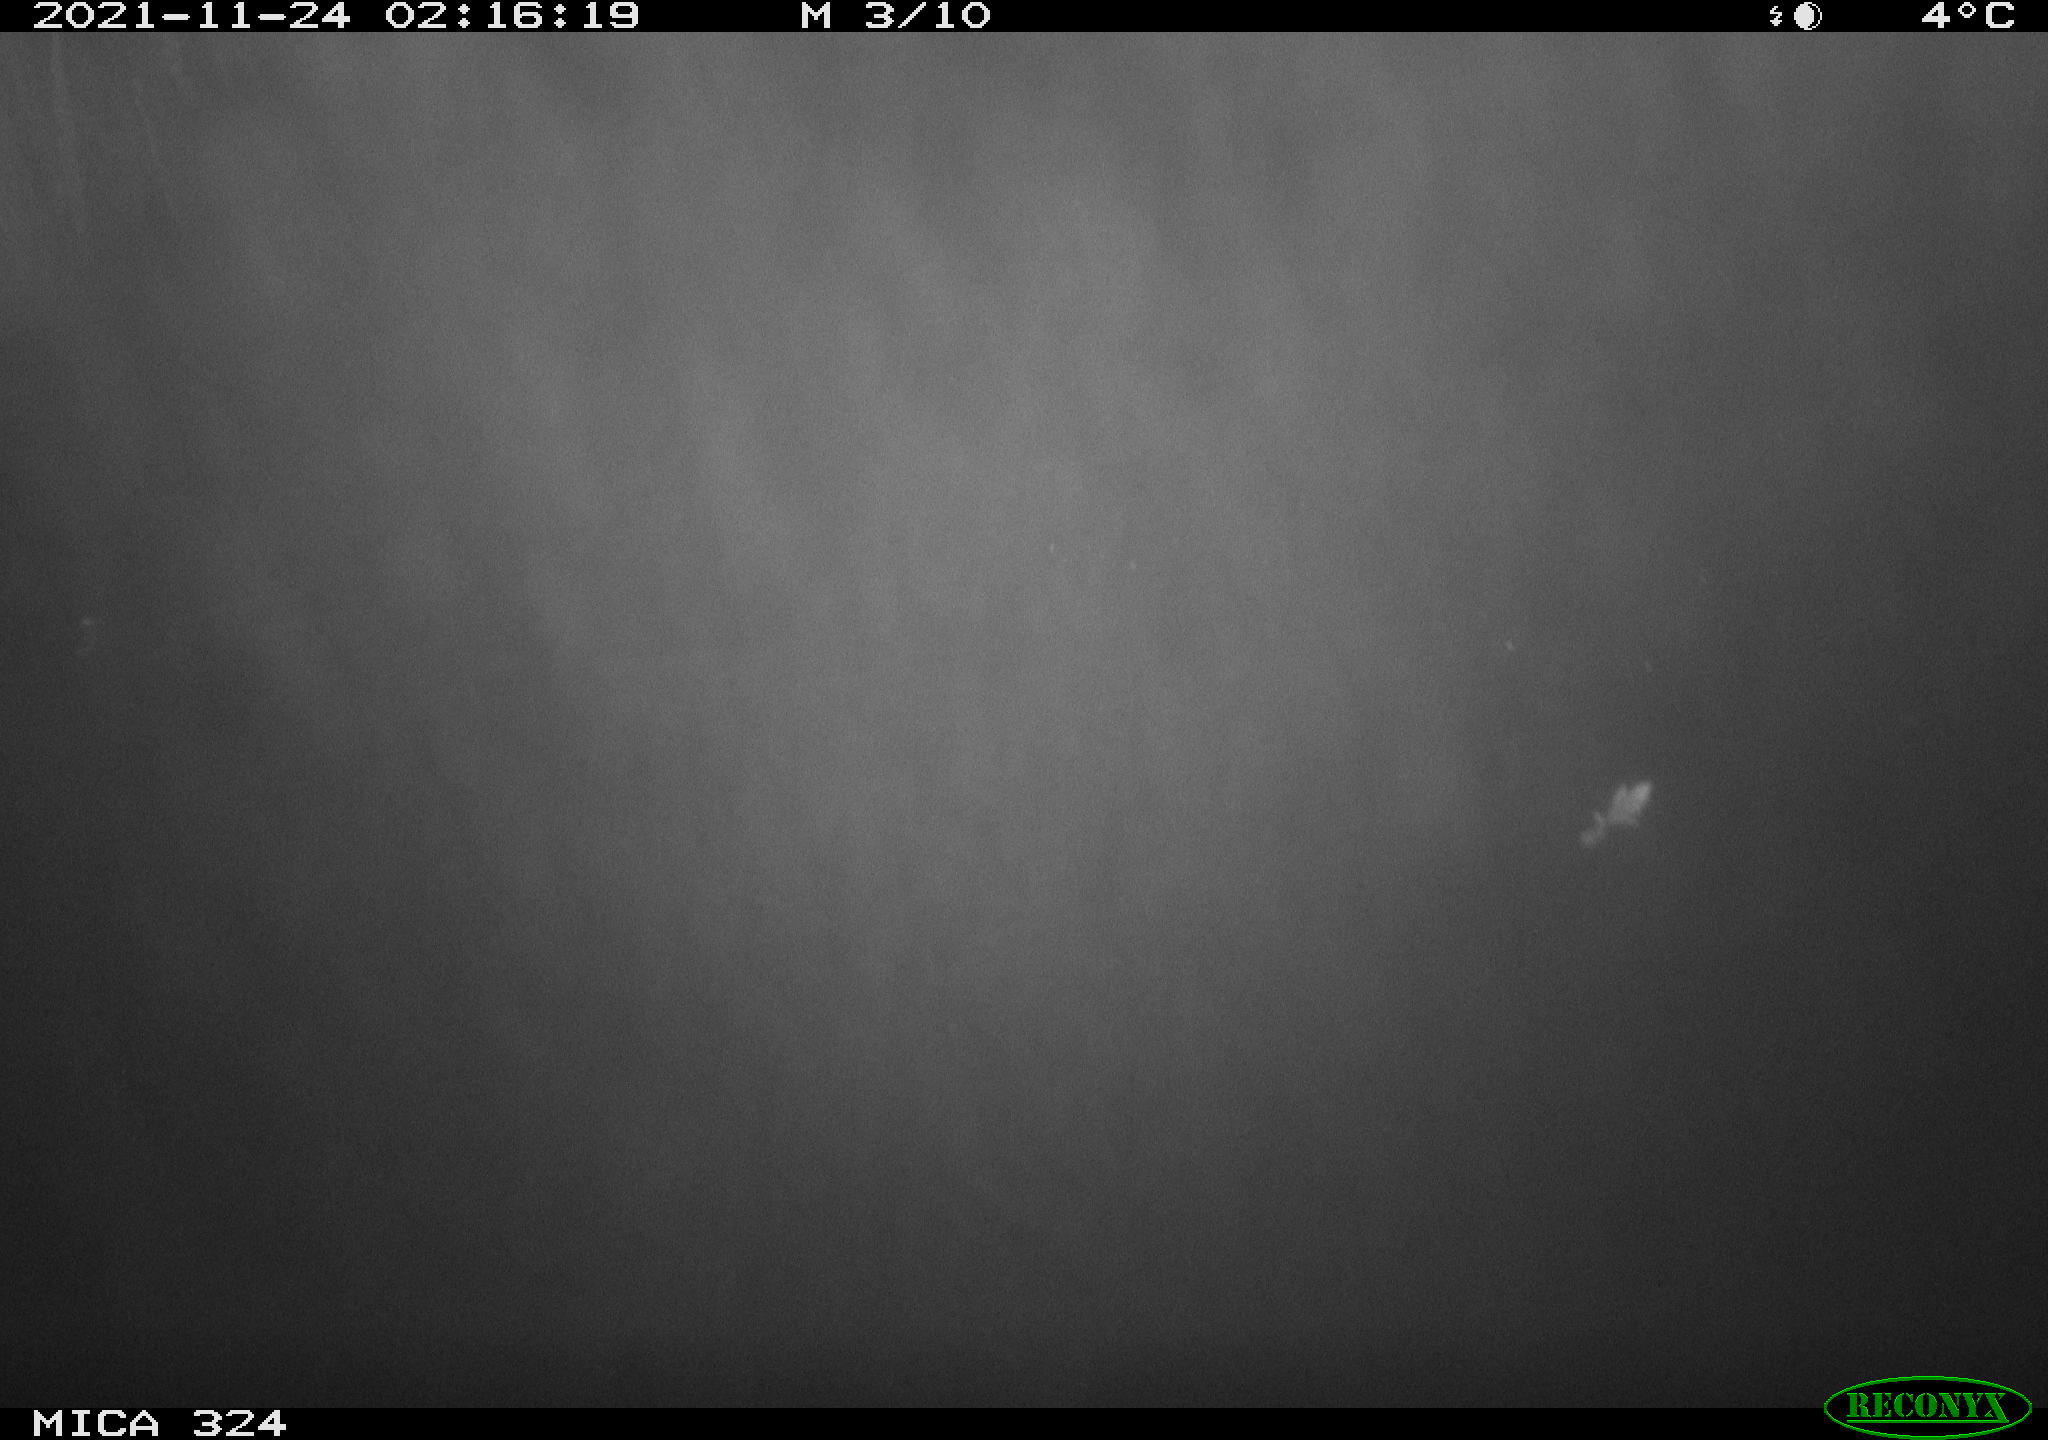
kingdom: Animalia
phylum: Chordata
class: Mammalia
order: Rodentia
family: Cricetidae
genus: Ondatra
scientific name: Ondatra zibethicus
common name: Muskrat
